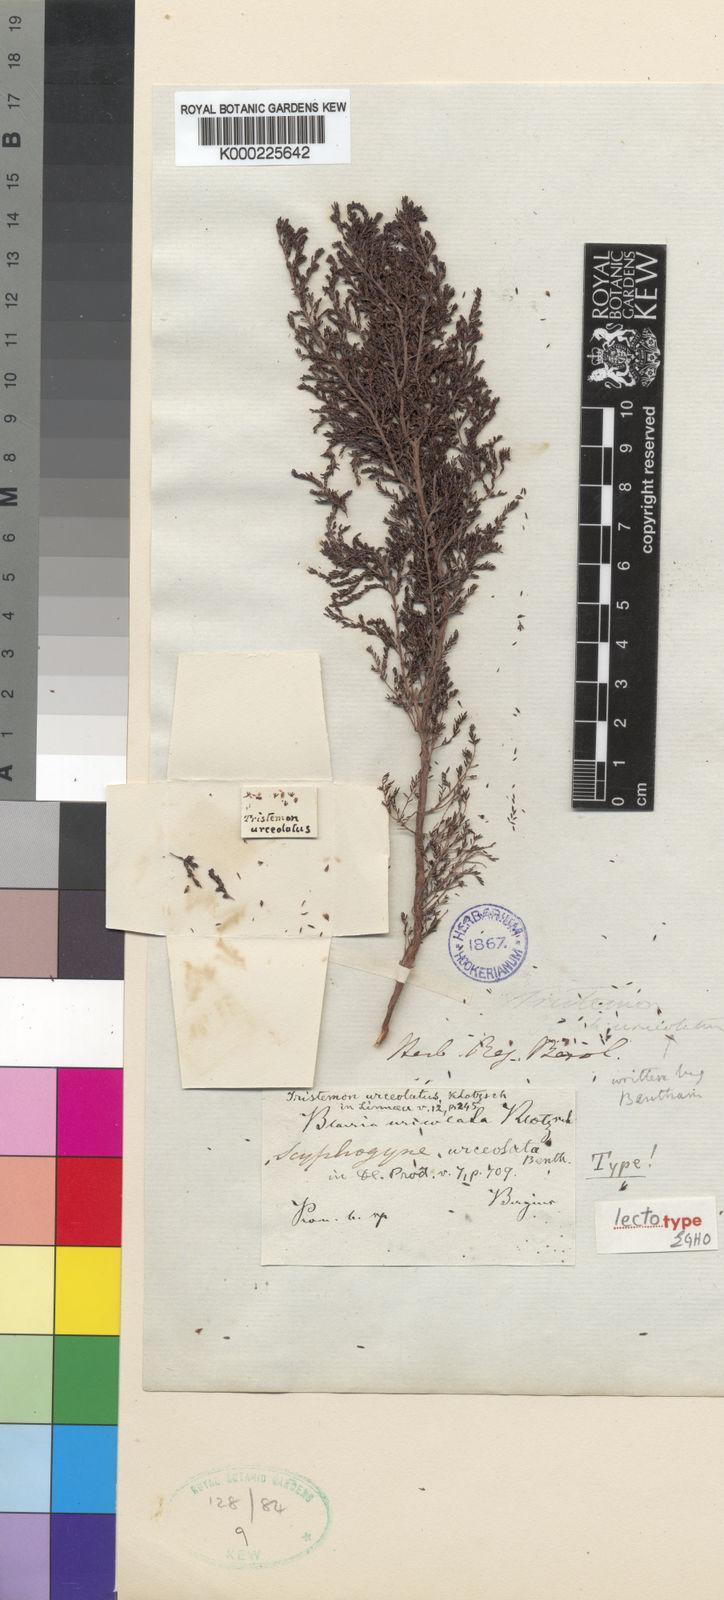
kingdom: Plantae
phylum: Tracheophyta
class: Magnoliopsida
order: Ericales
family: Ericaceae
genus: Erica
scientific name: Erica urceolata
